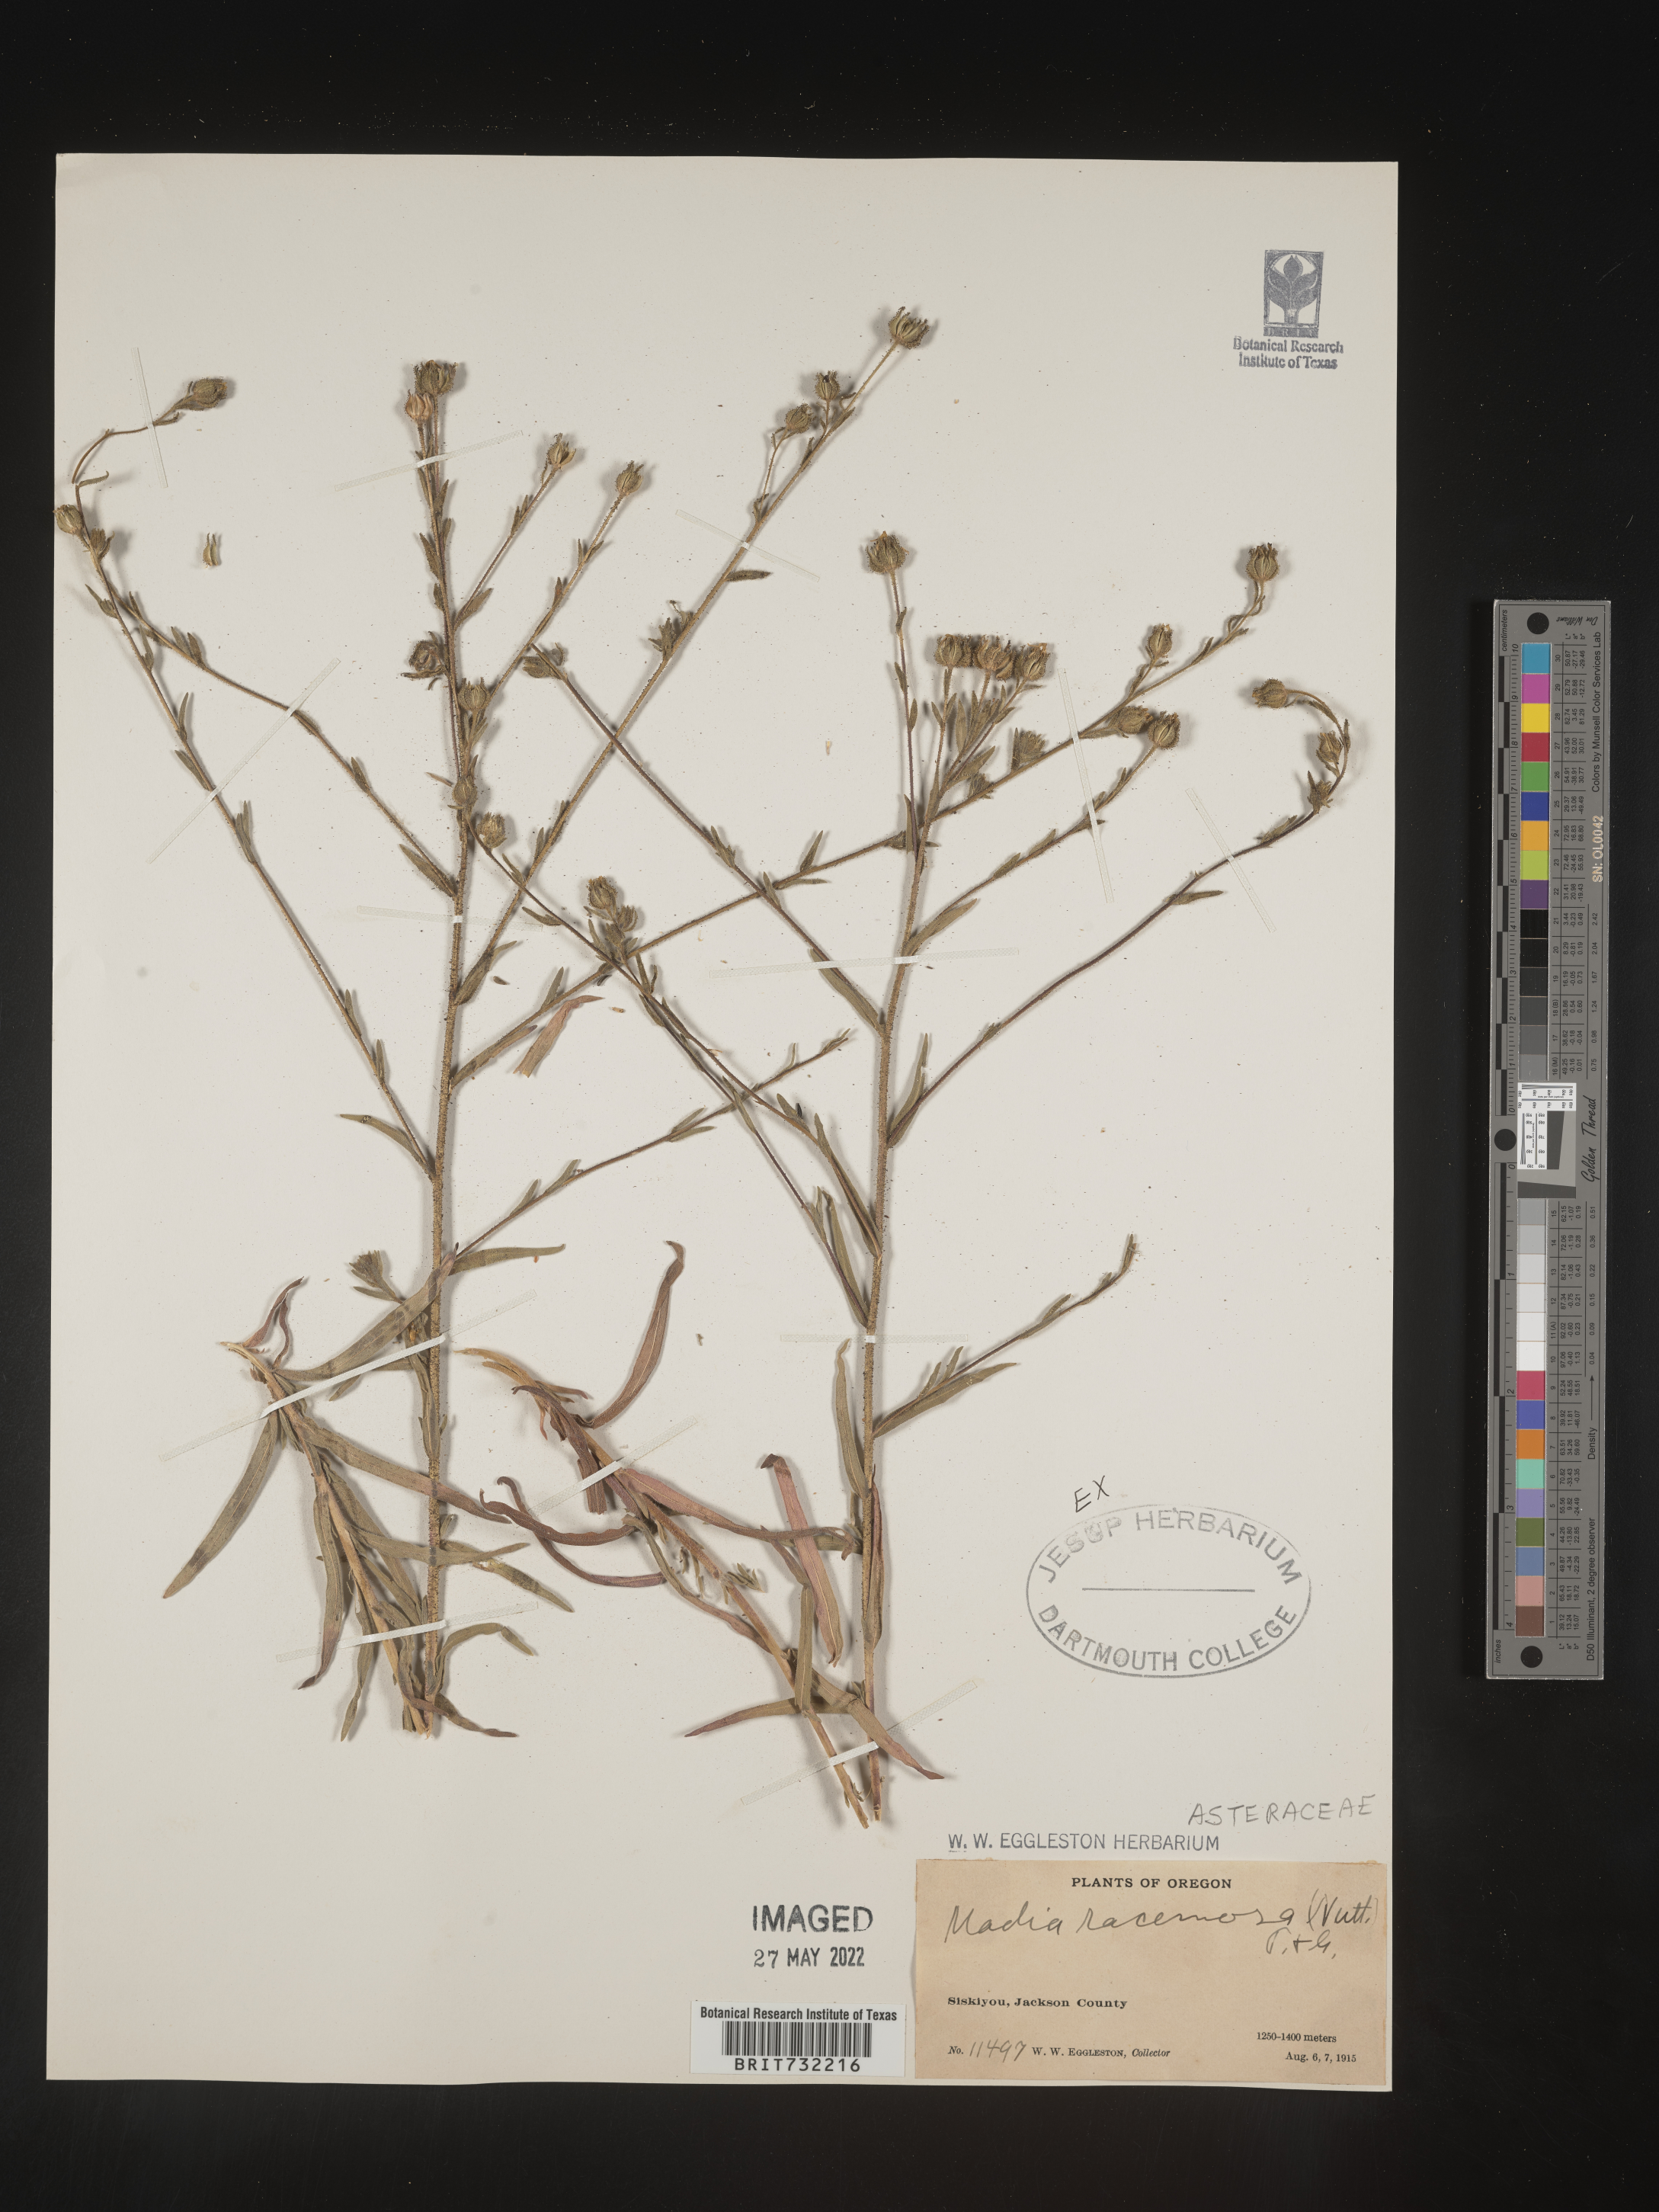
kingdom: Plantae
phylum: Tracheophyta
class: Magnoliopsida
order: Asterales
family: Asteraceae
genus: Madia
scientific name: Madia
